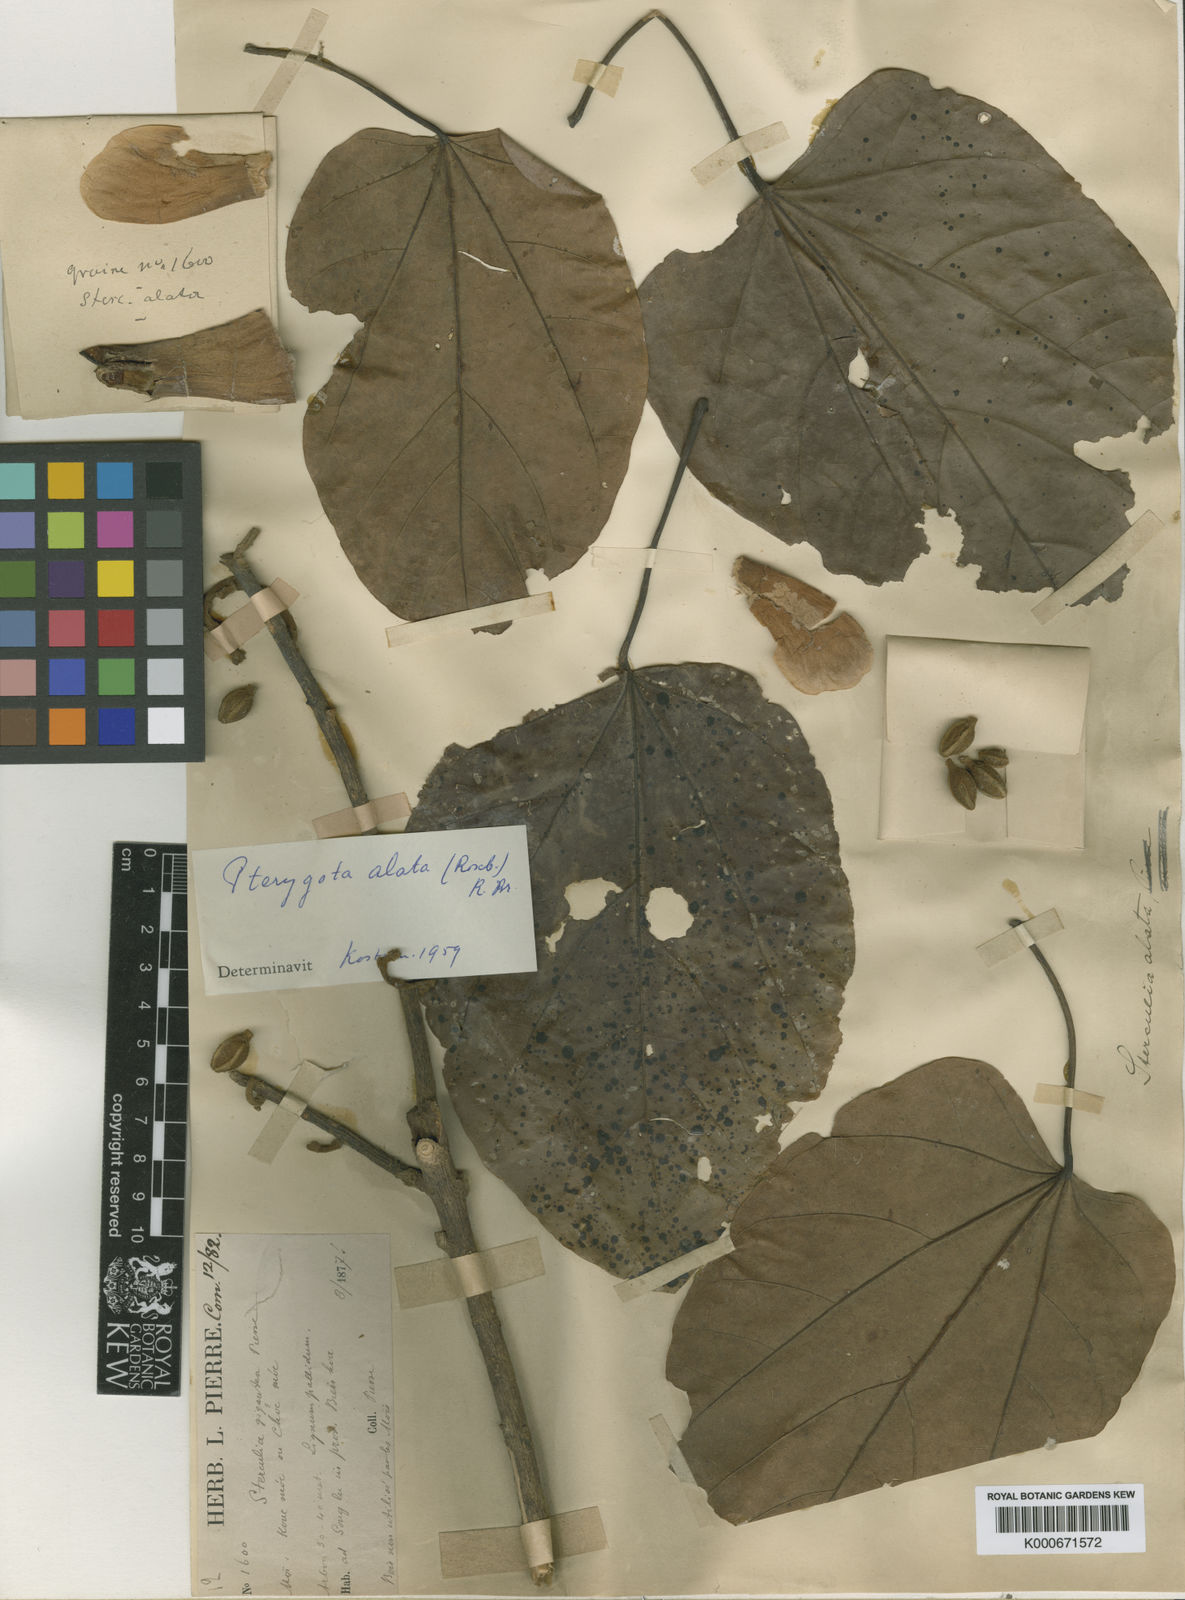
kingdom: Plantae
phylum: Tracheophyta
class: Magnoliopsida
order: Malvales
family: Malvaceae
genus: Pterygota
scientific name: Pterygota alata
